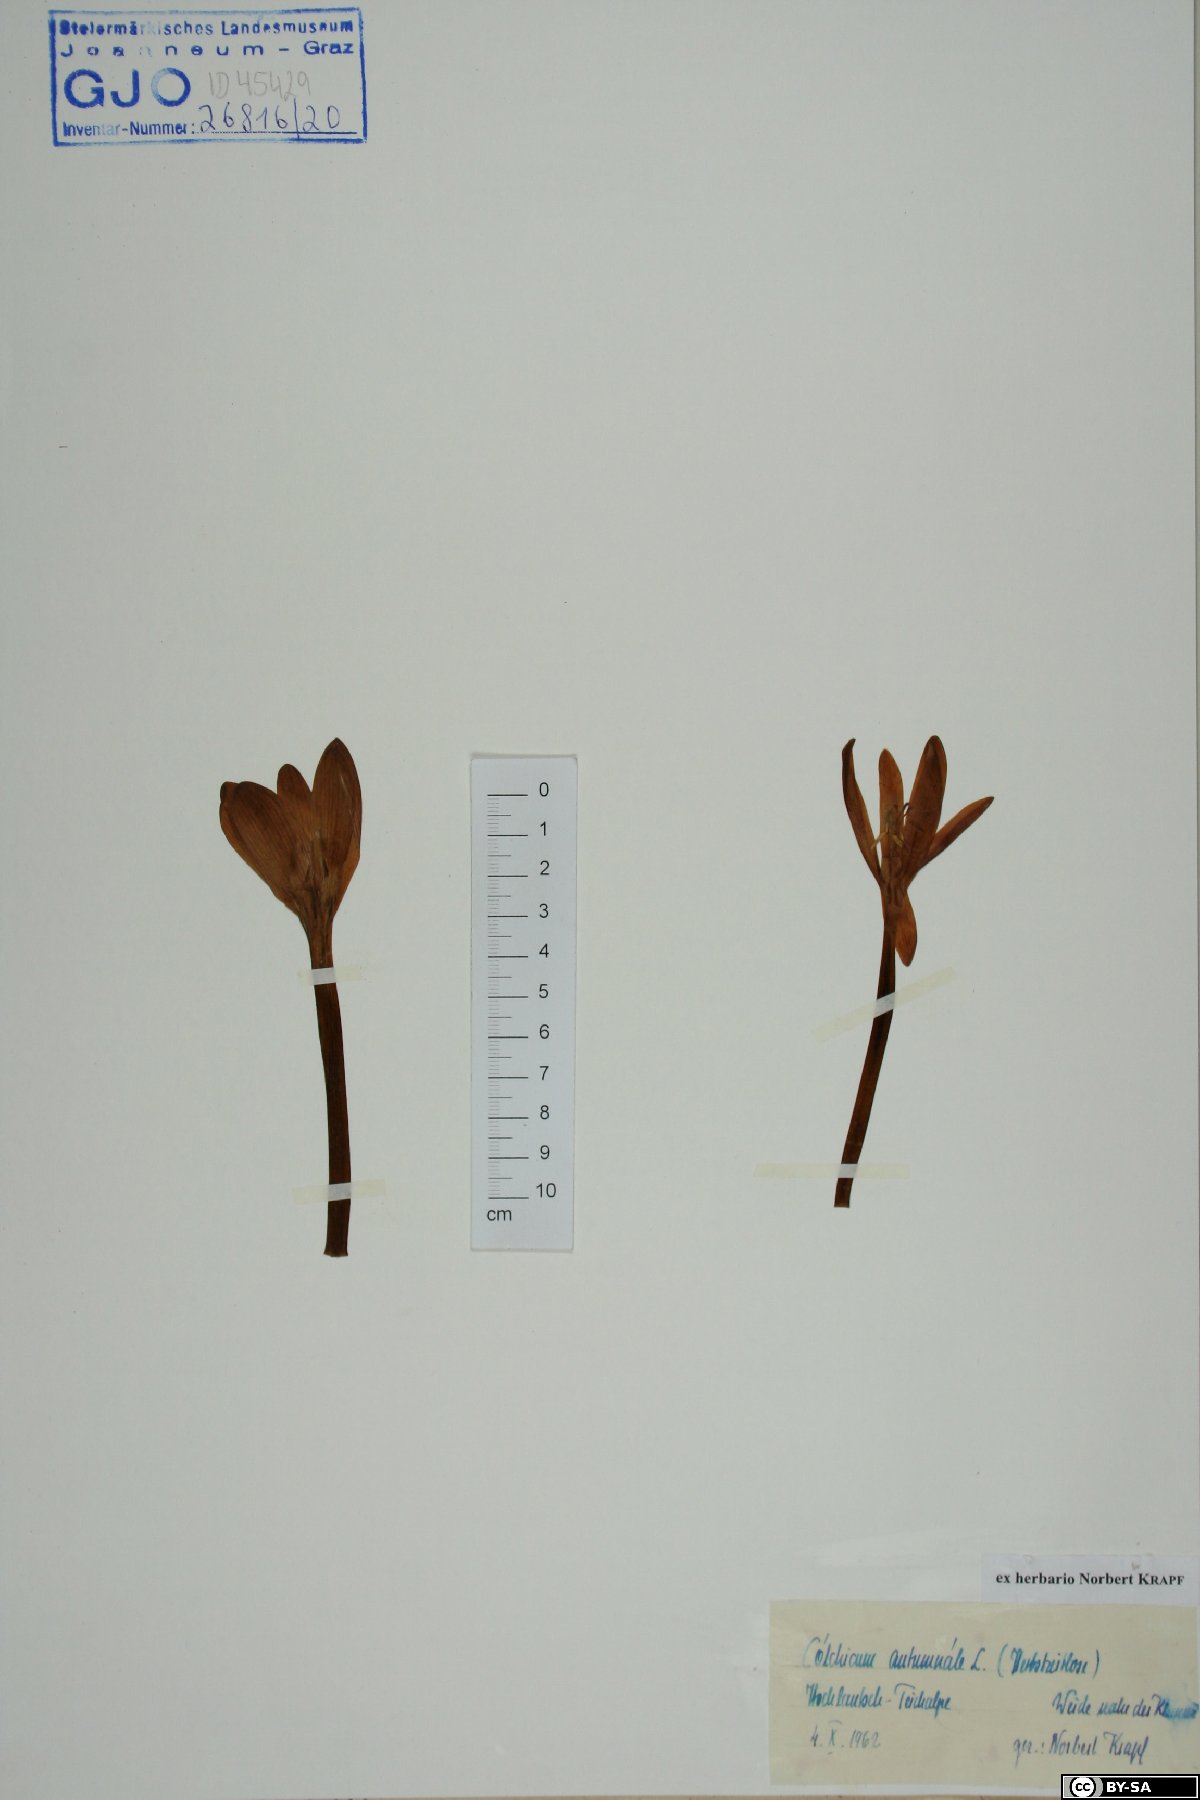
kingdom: Plantae
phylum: Tracheophyta
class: Liliopsida
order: Liliales
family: Colchicaceae
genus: Colchicum
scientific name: Colchicum autumnale
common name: Autumn crocus
